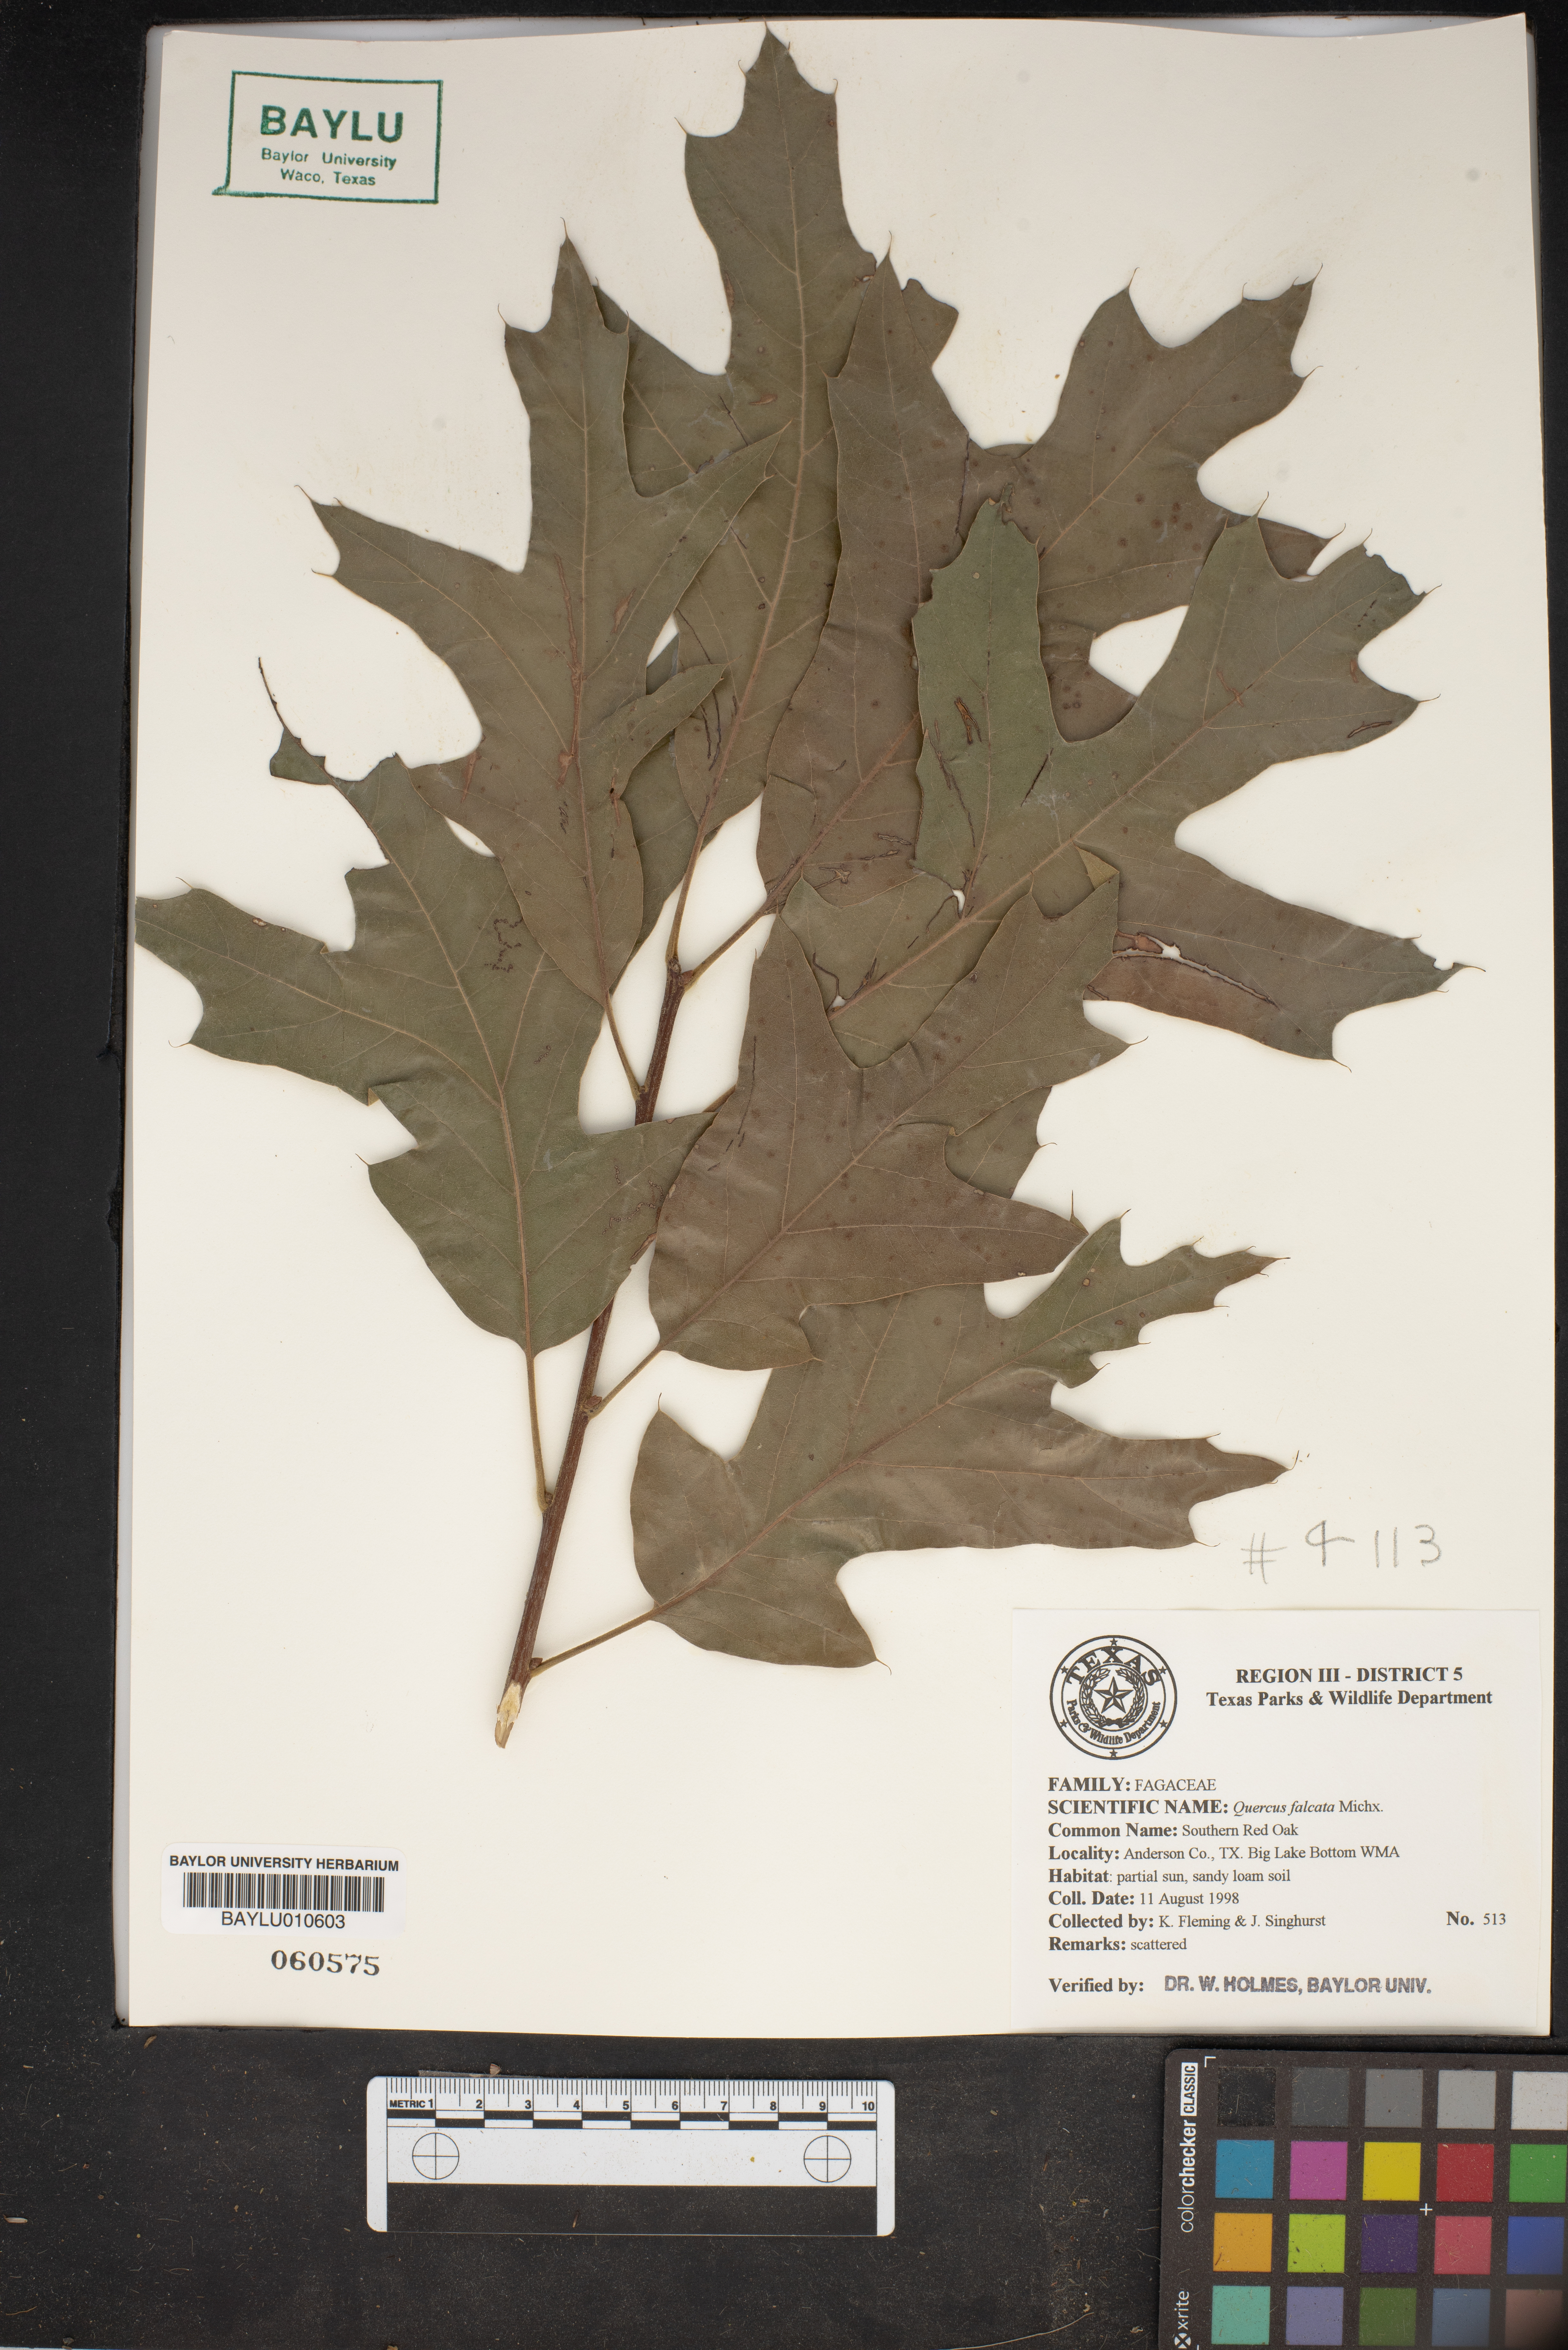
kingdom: Plantae
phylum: Tracheophyta
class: Magnoliopsida
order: Fagales
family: Fagaceae
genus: Quercus
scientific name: Quercus falcata
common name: Southern red oak
